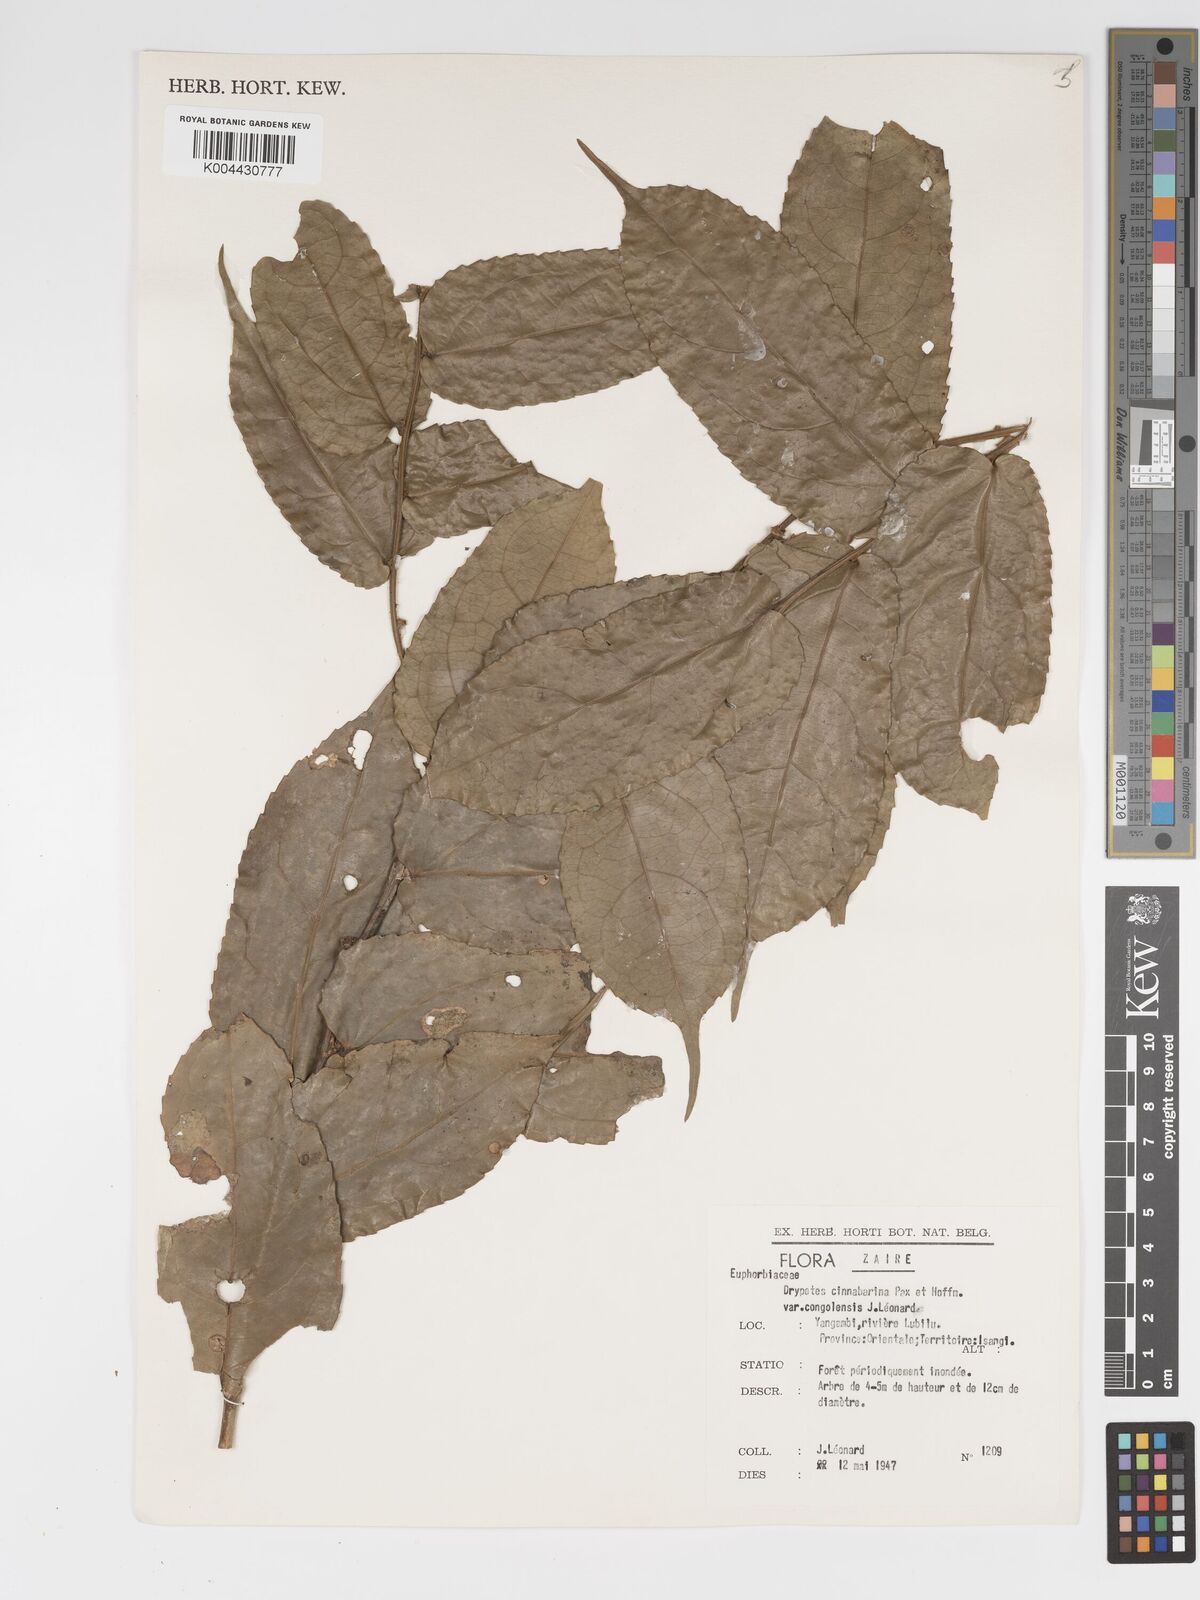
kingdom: Plantae
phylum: Tracheophyta
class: Magnoliopsida
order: Malpighiales
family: Putranjivaceae
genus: Drypetes
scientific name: Drypetes cinnabarina
